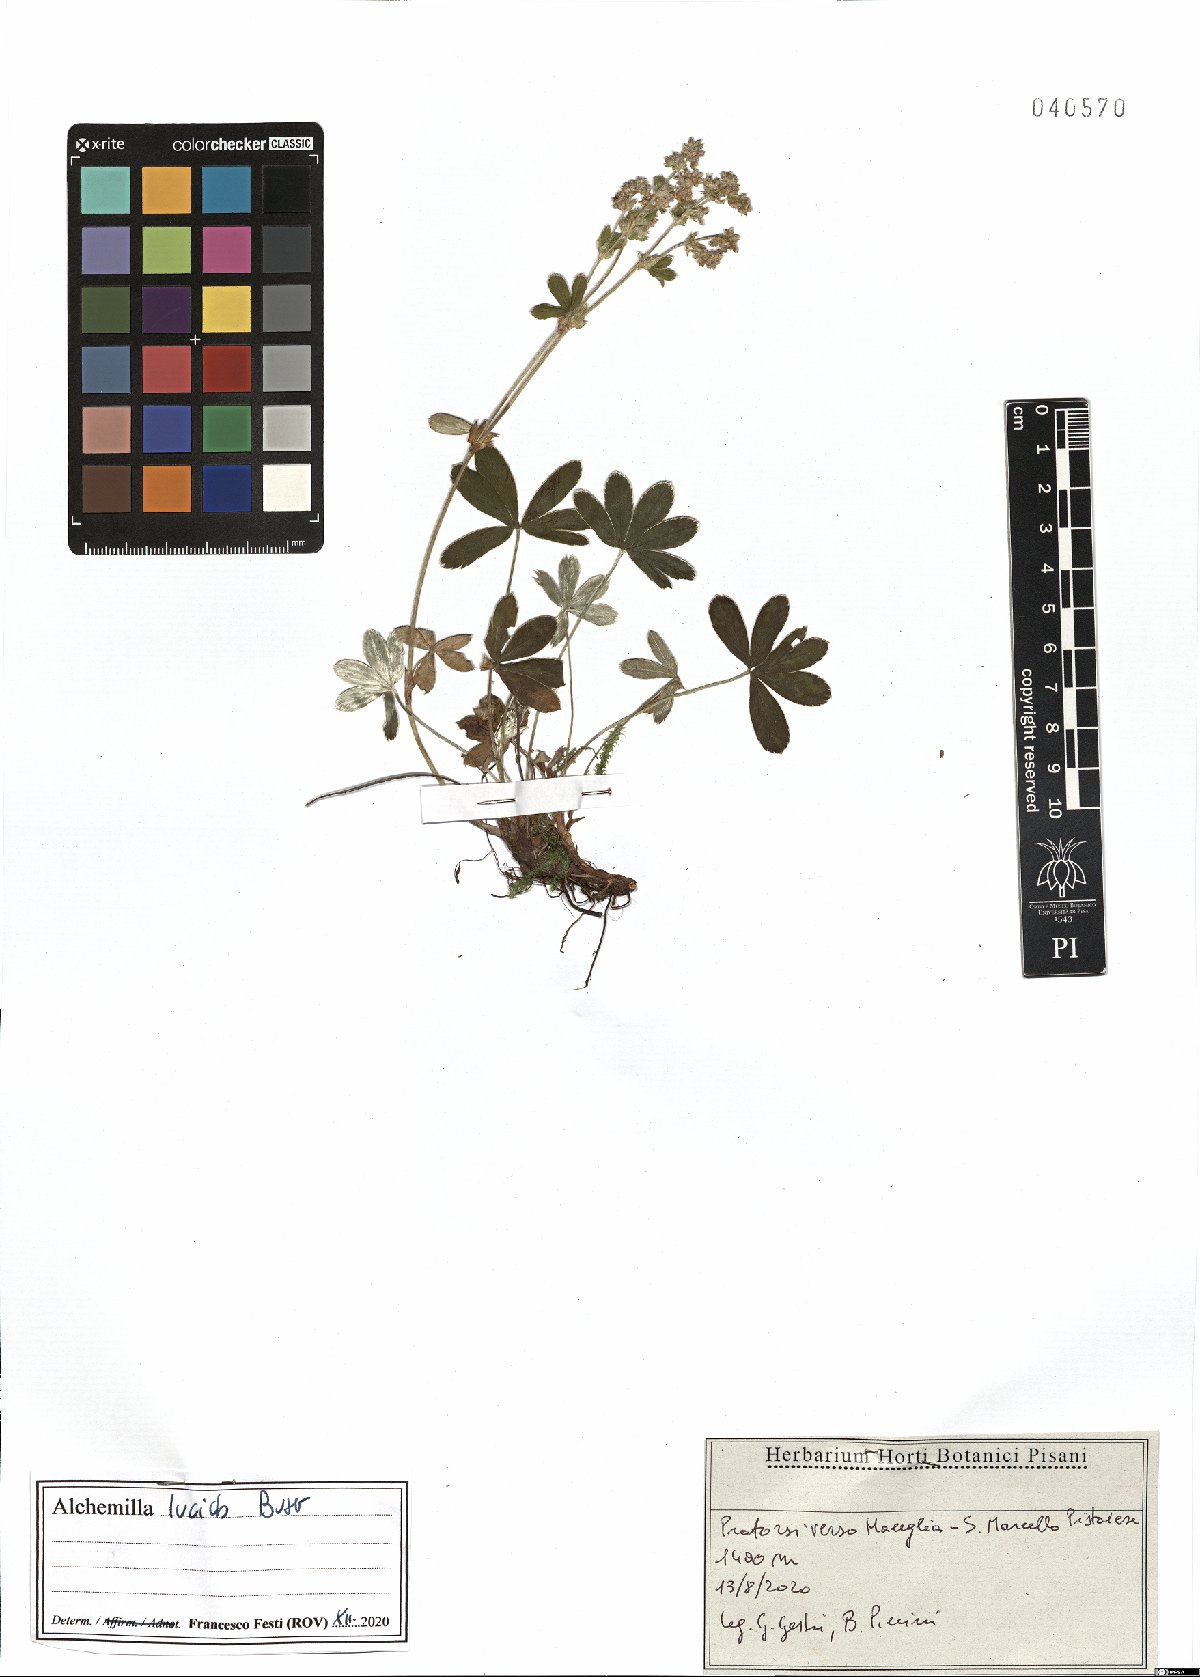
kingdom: Plantae
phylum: Tracheophyta
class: Magnoliopsida
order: Rosales
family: Rosaceae
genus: Alchemilla
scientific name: Alchemilla lucida
